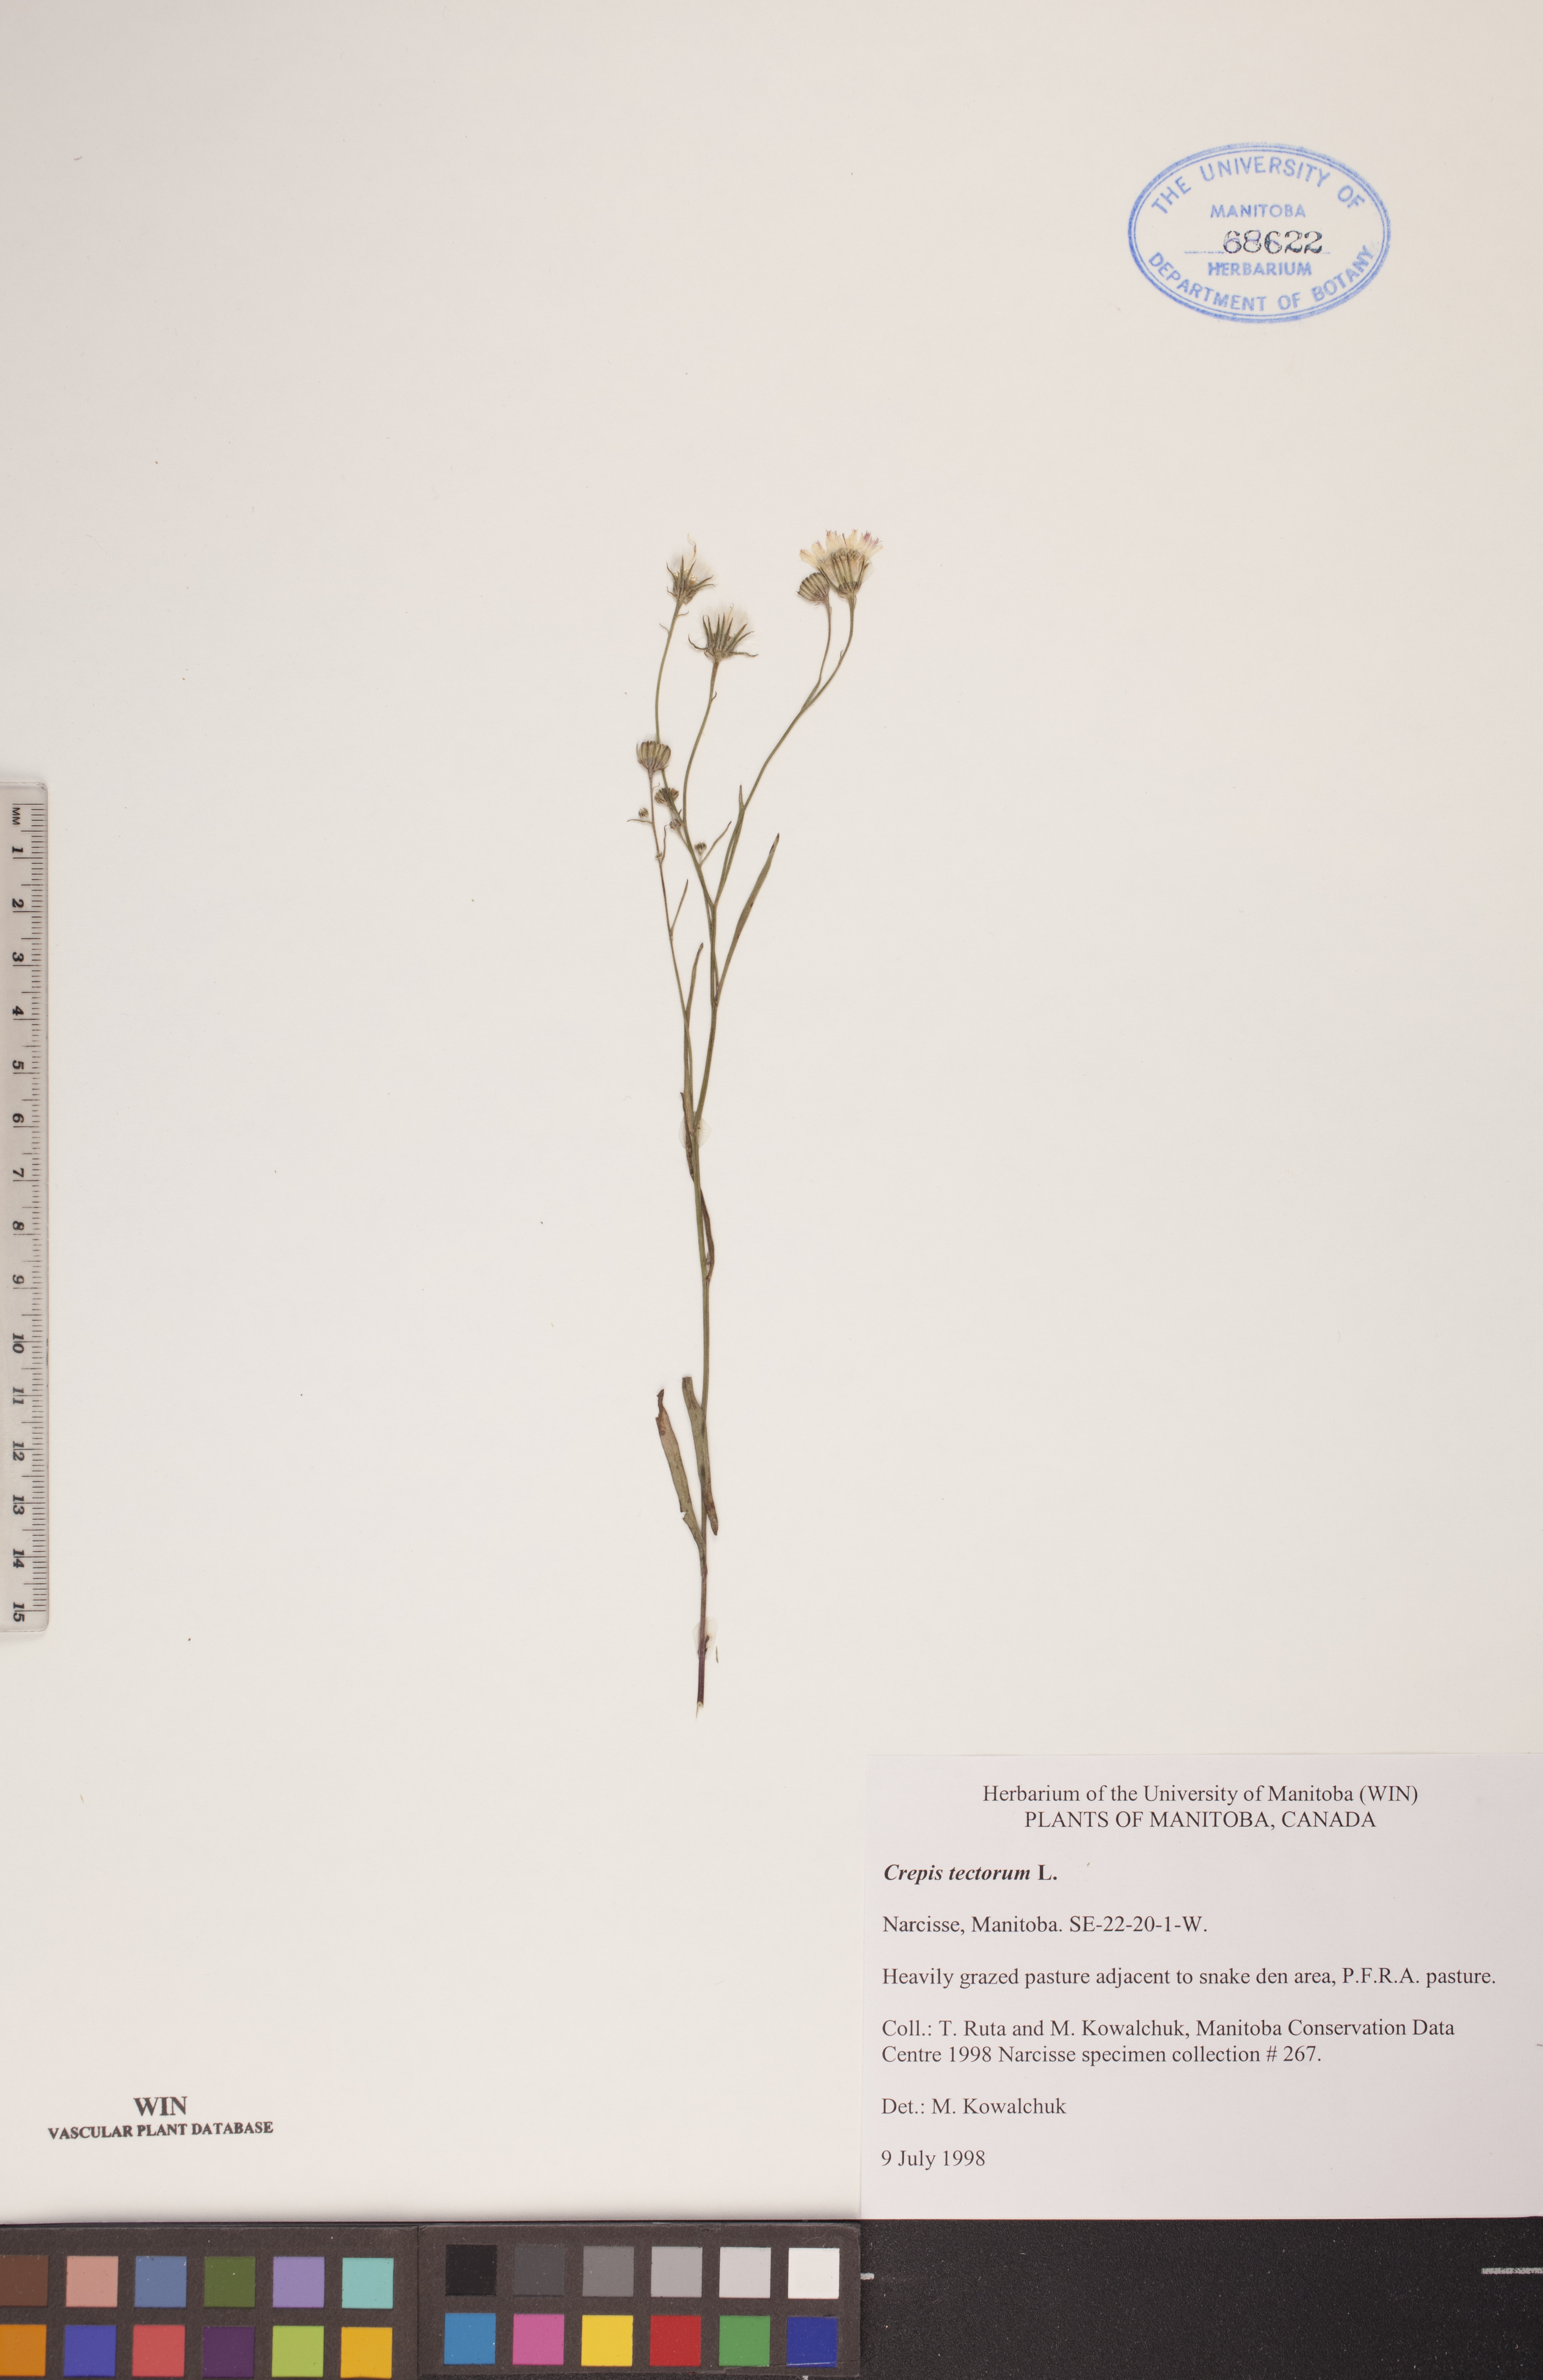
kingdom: Plantae
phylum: Tracheophyta
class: Magnoliopsida
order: Asterales
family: Asteraceae
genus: Crepis
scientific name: Crepis tectorum
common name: Narrow-leaved hawk's-beard
